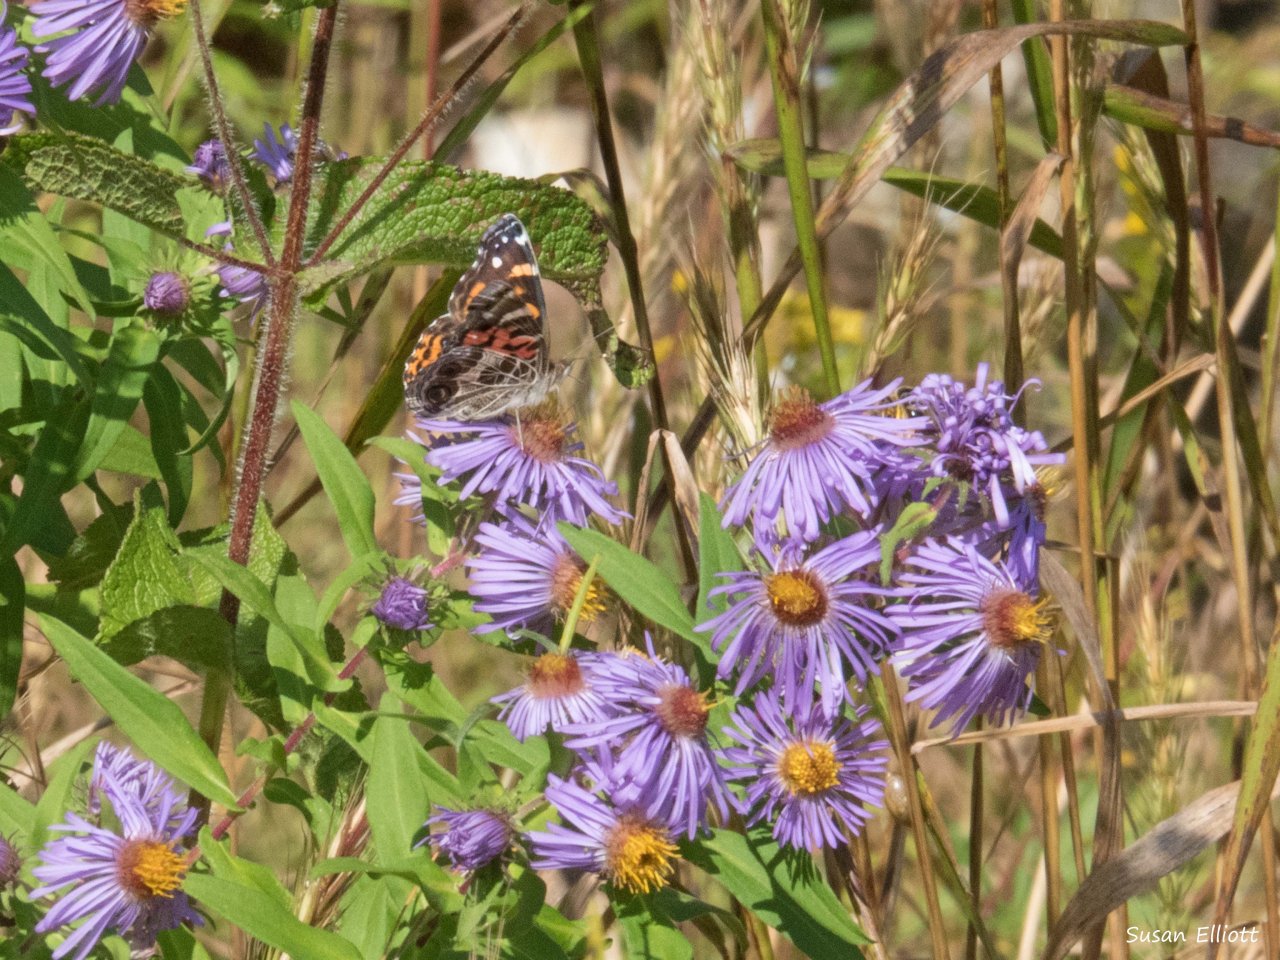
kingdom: Animalia
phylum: Arthropoda
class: Insecta
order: Lepidoptera
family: Nymphalidae
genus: Vanessa
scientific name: Vanessa cardui
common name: Painted Lady
